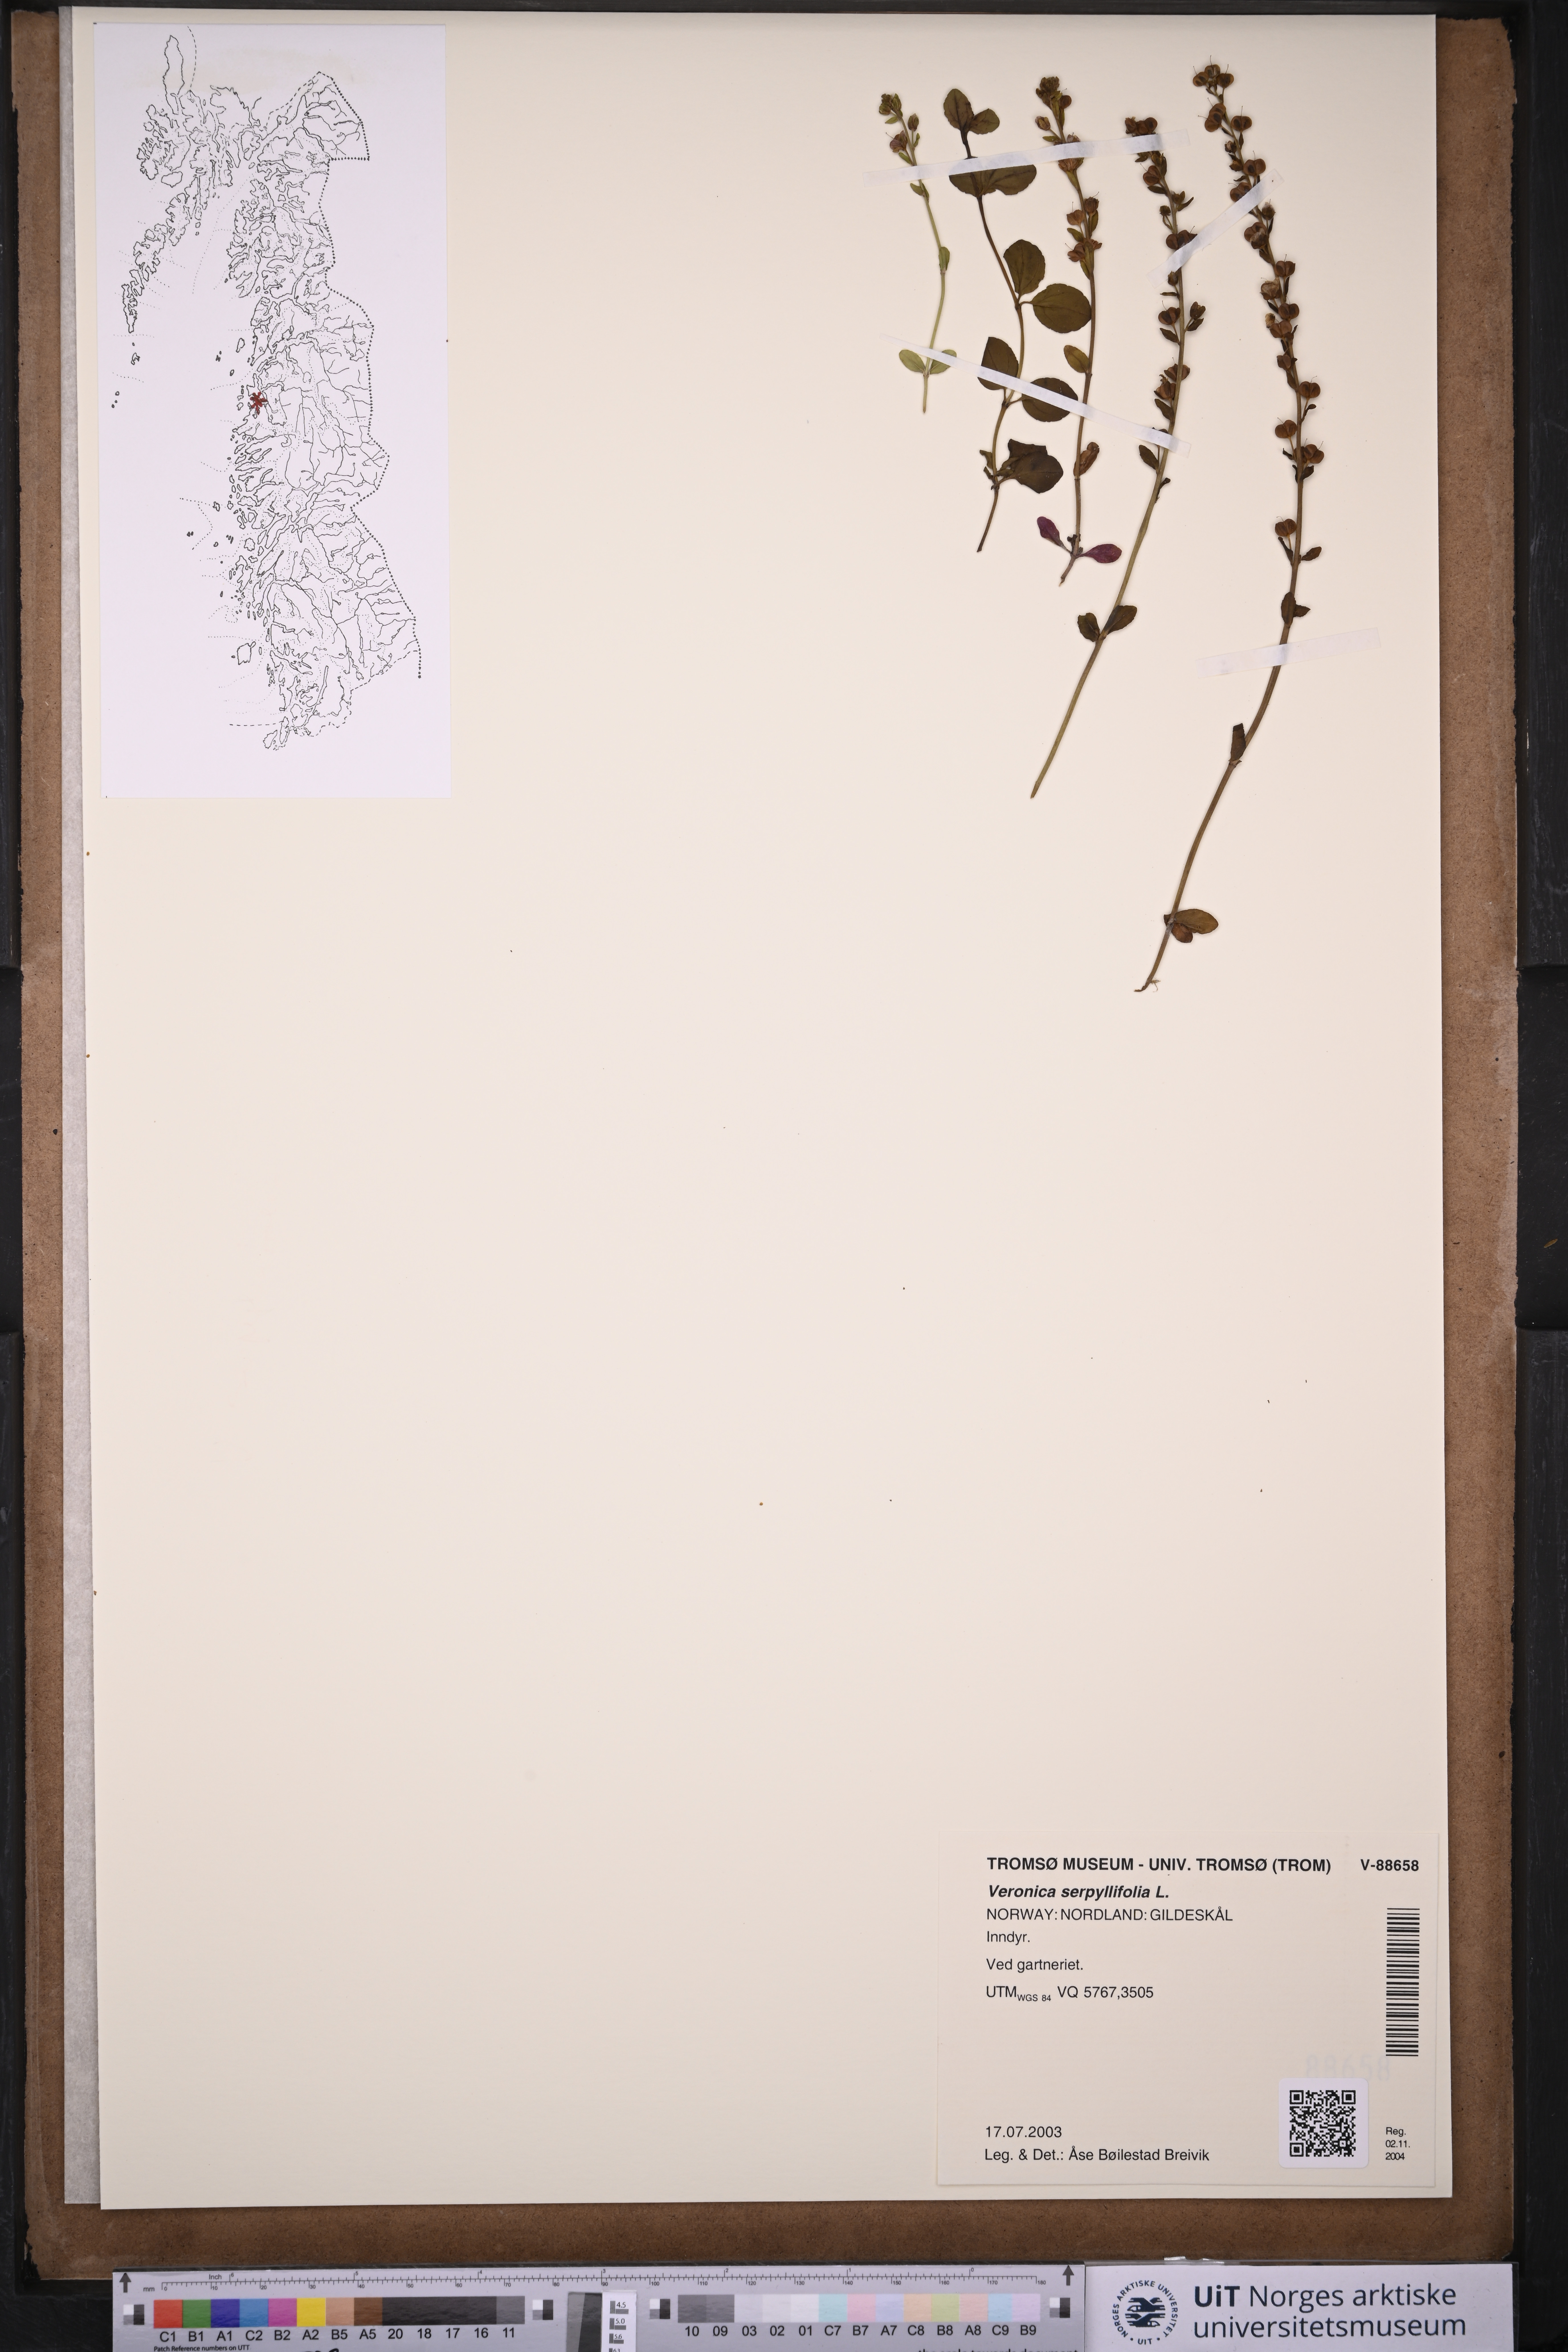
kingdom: Plantae
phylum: Tracheophyta
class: Magnoliopsida
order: Lamiales
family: Plantaginaceae
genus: Veronica
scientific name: Veronica serpyllifolia
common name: Thyme-leaved speedwell
